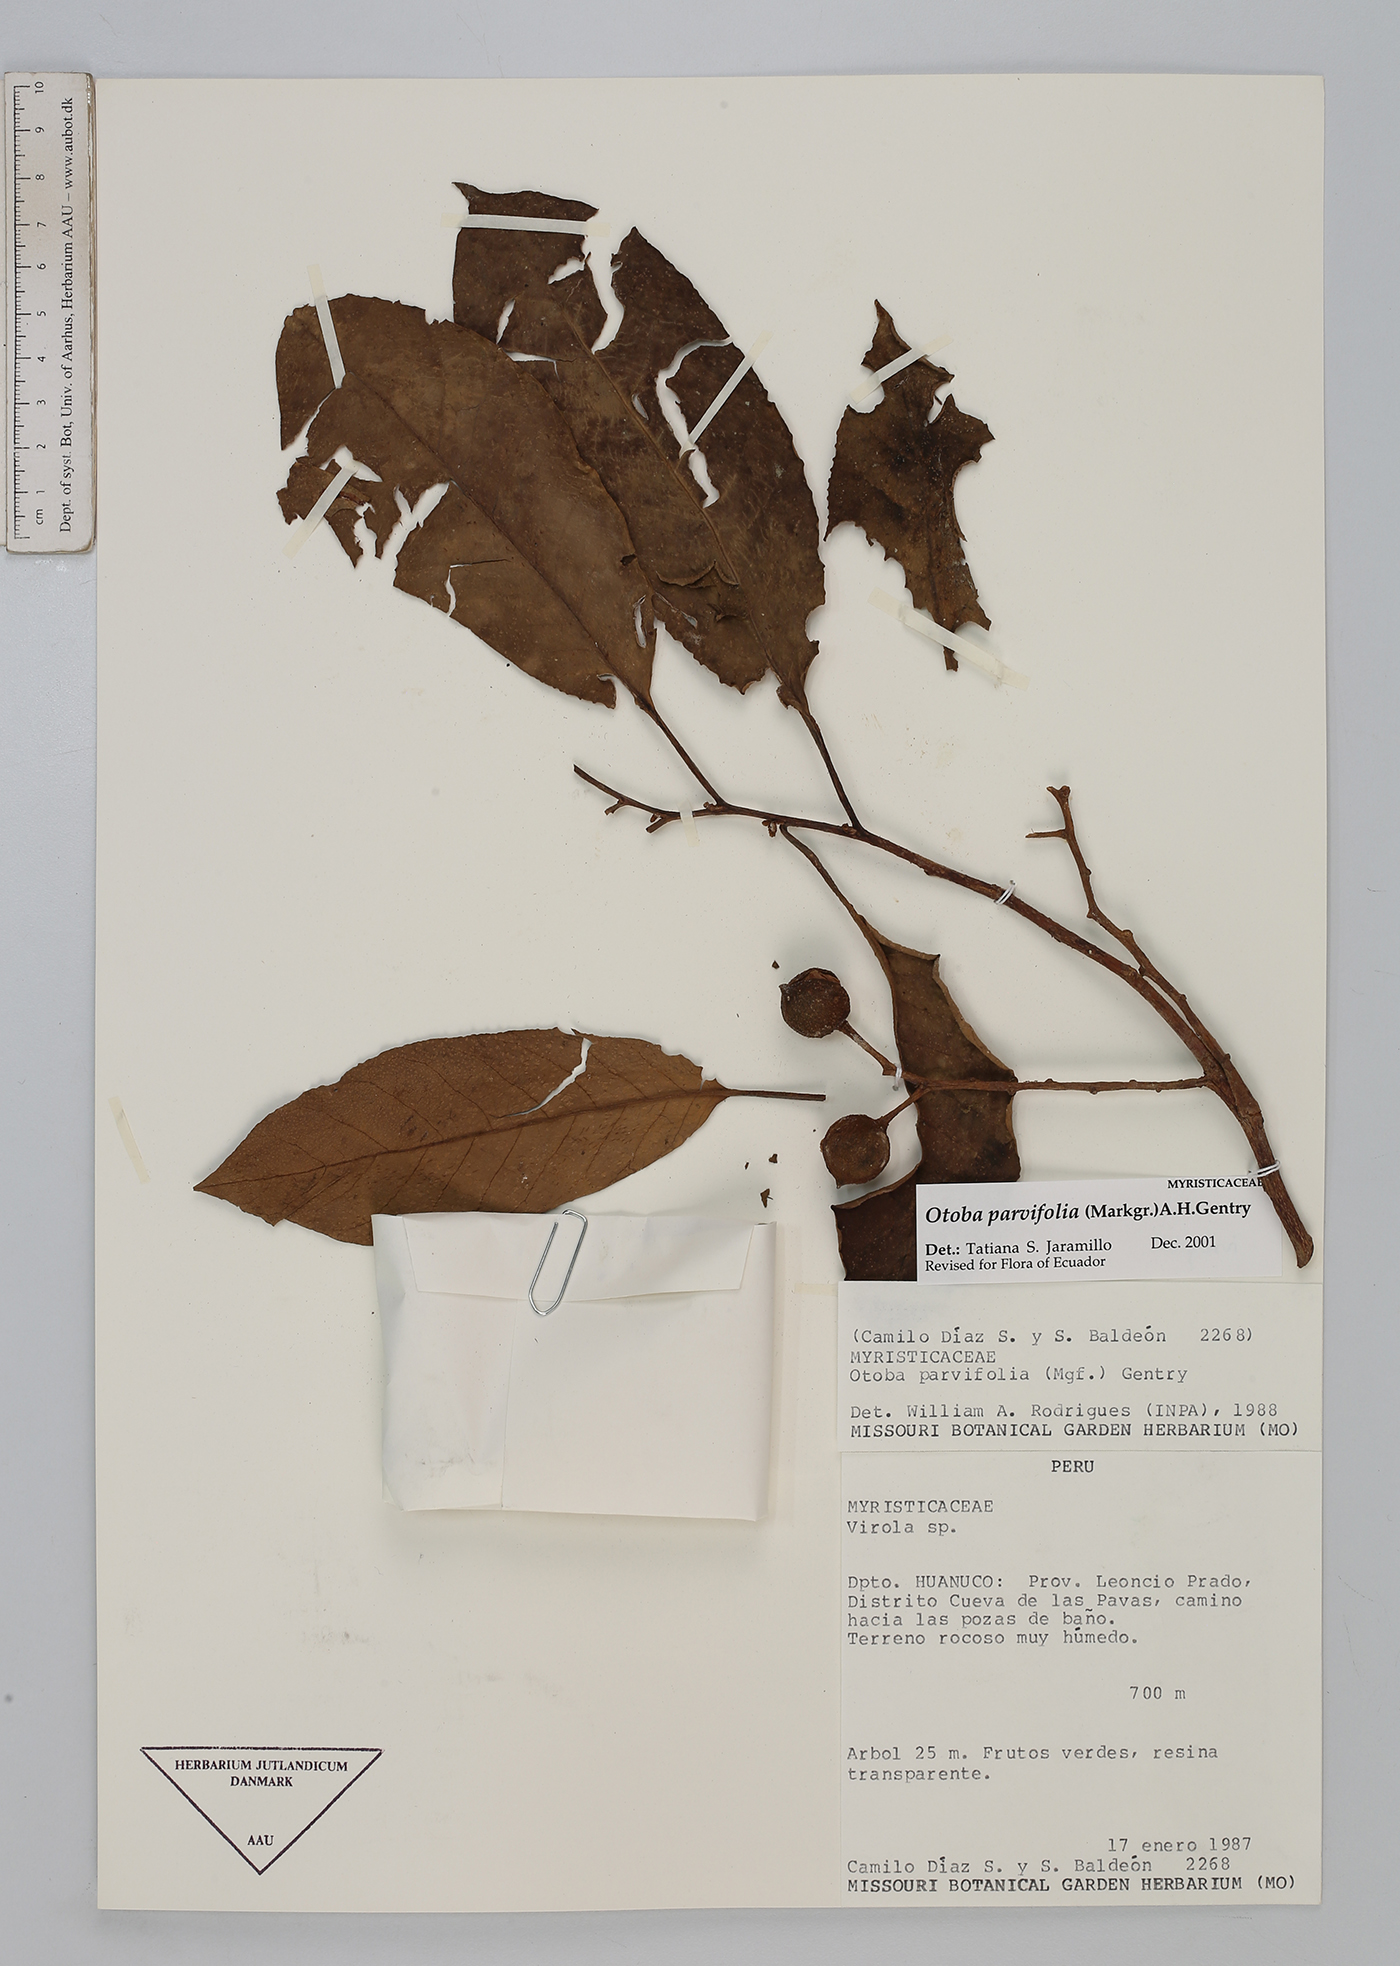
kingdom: Plantae
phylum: Tracheophyta
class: Magnoliopsida
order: Magnoliales
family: Myristicaceae
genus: Otoba
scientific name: Otoba parvifolia
